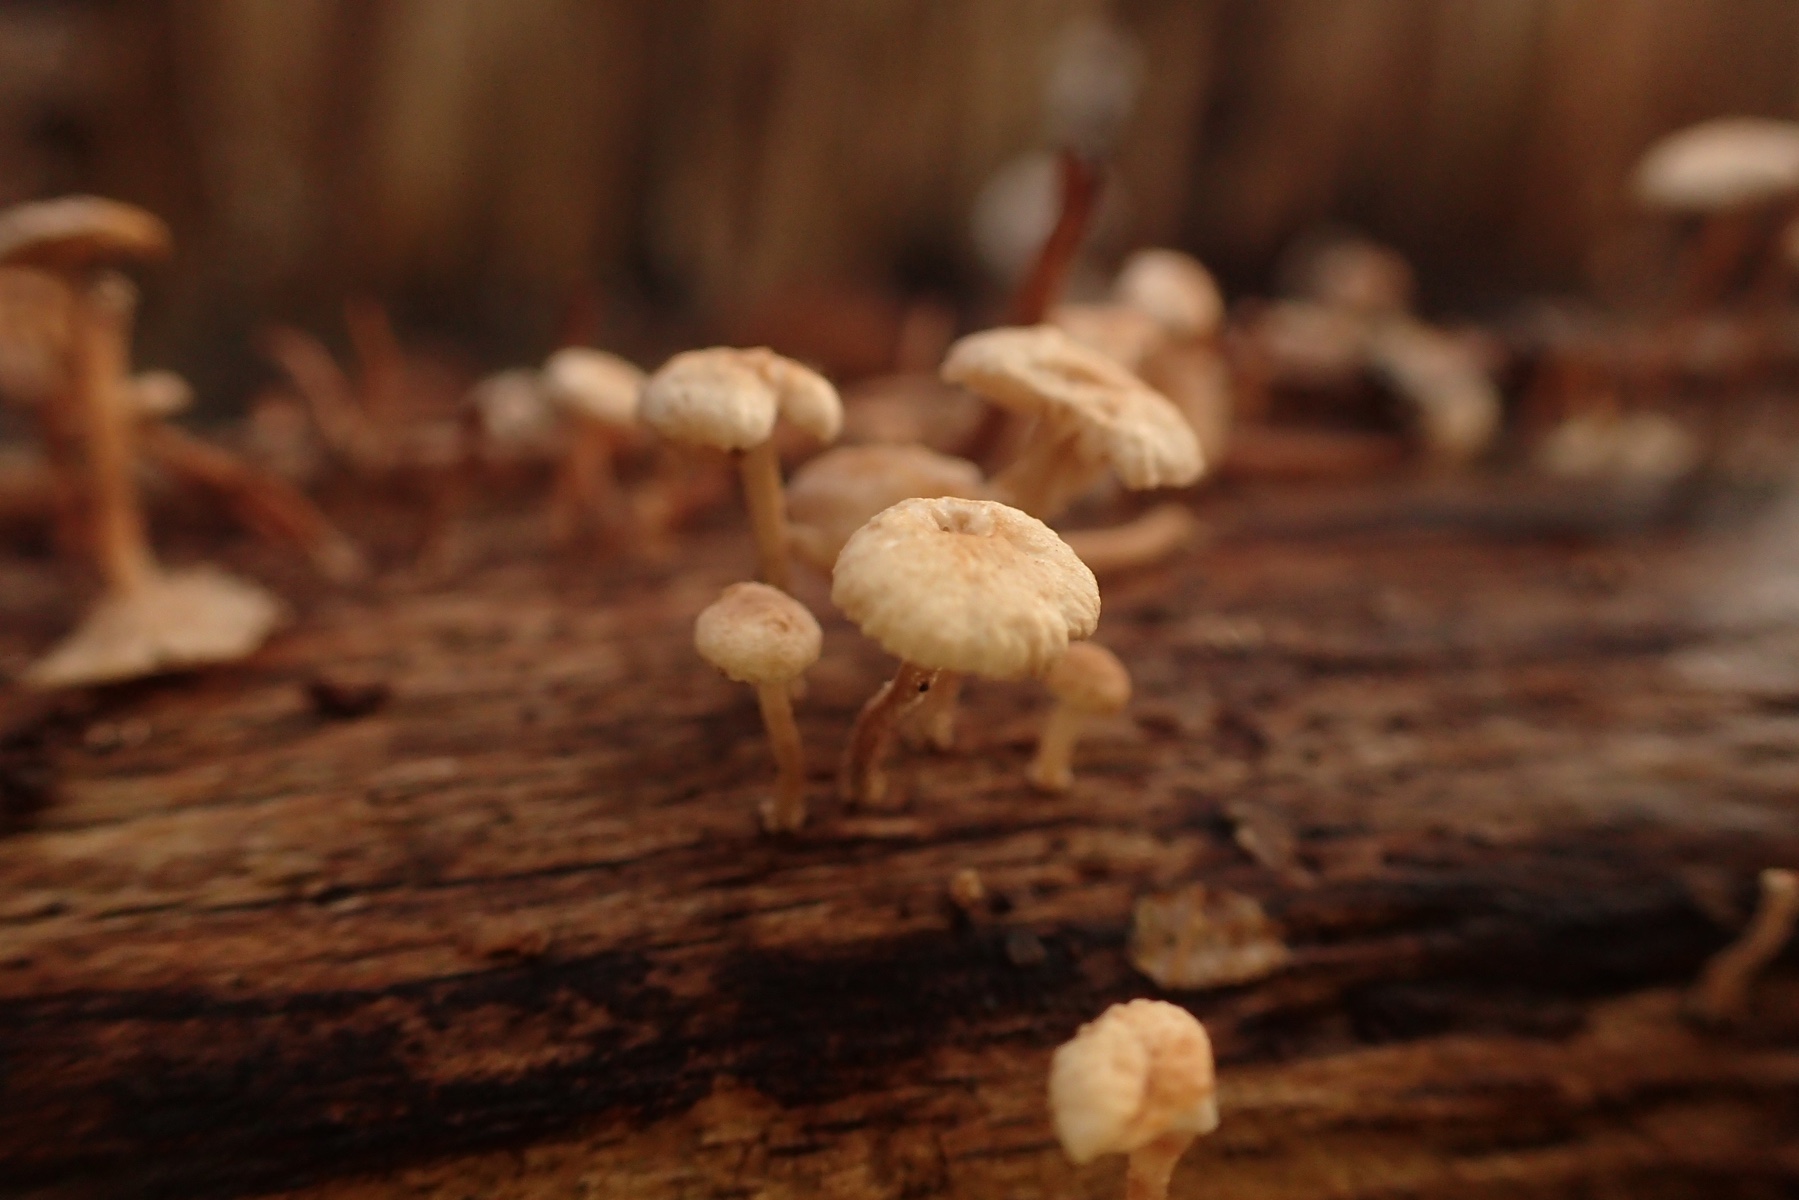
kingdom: Fungi
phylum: Basidiomycota
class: Agaricomycetes
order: Agaricales
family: Omphalotaceae
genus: Collybiopsis
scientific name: Collybiopsis ramealis
